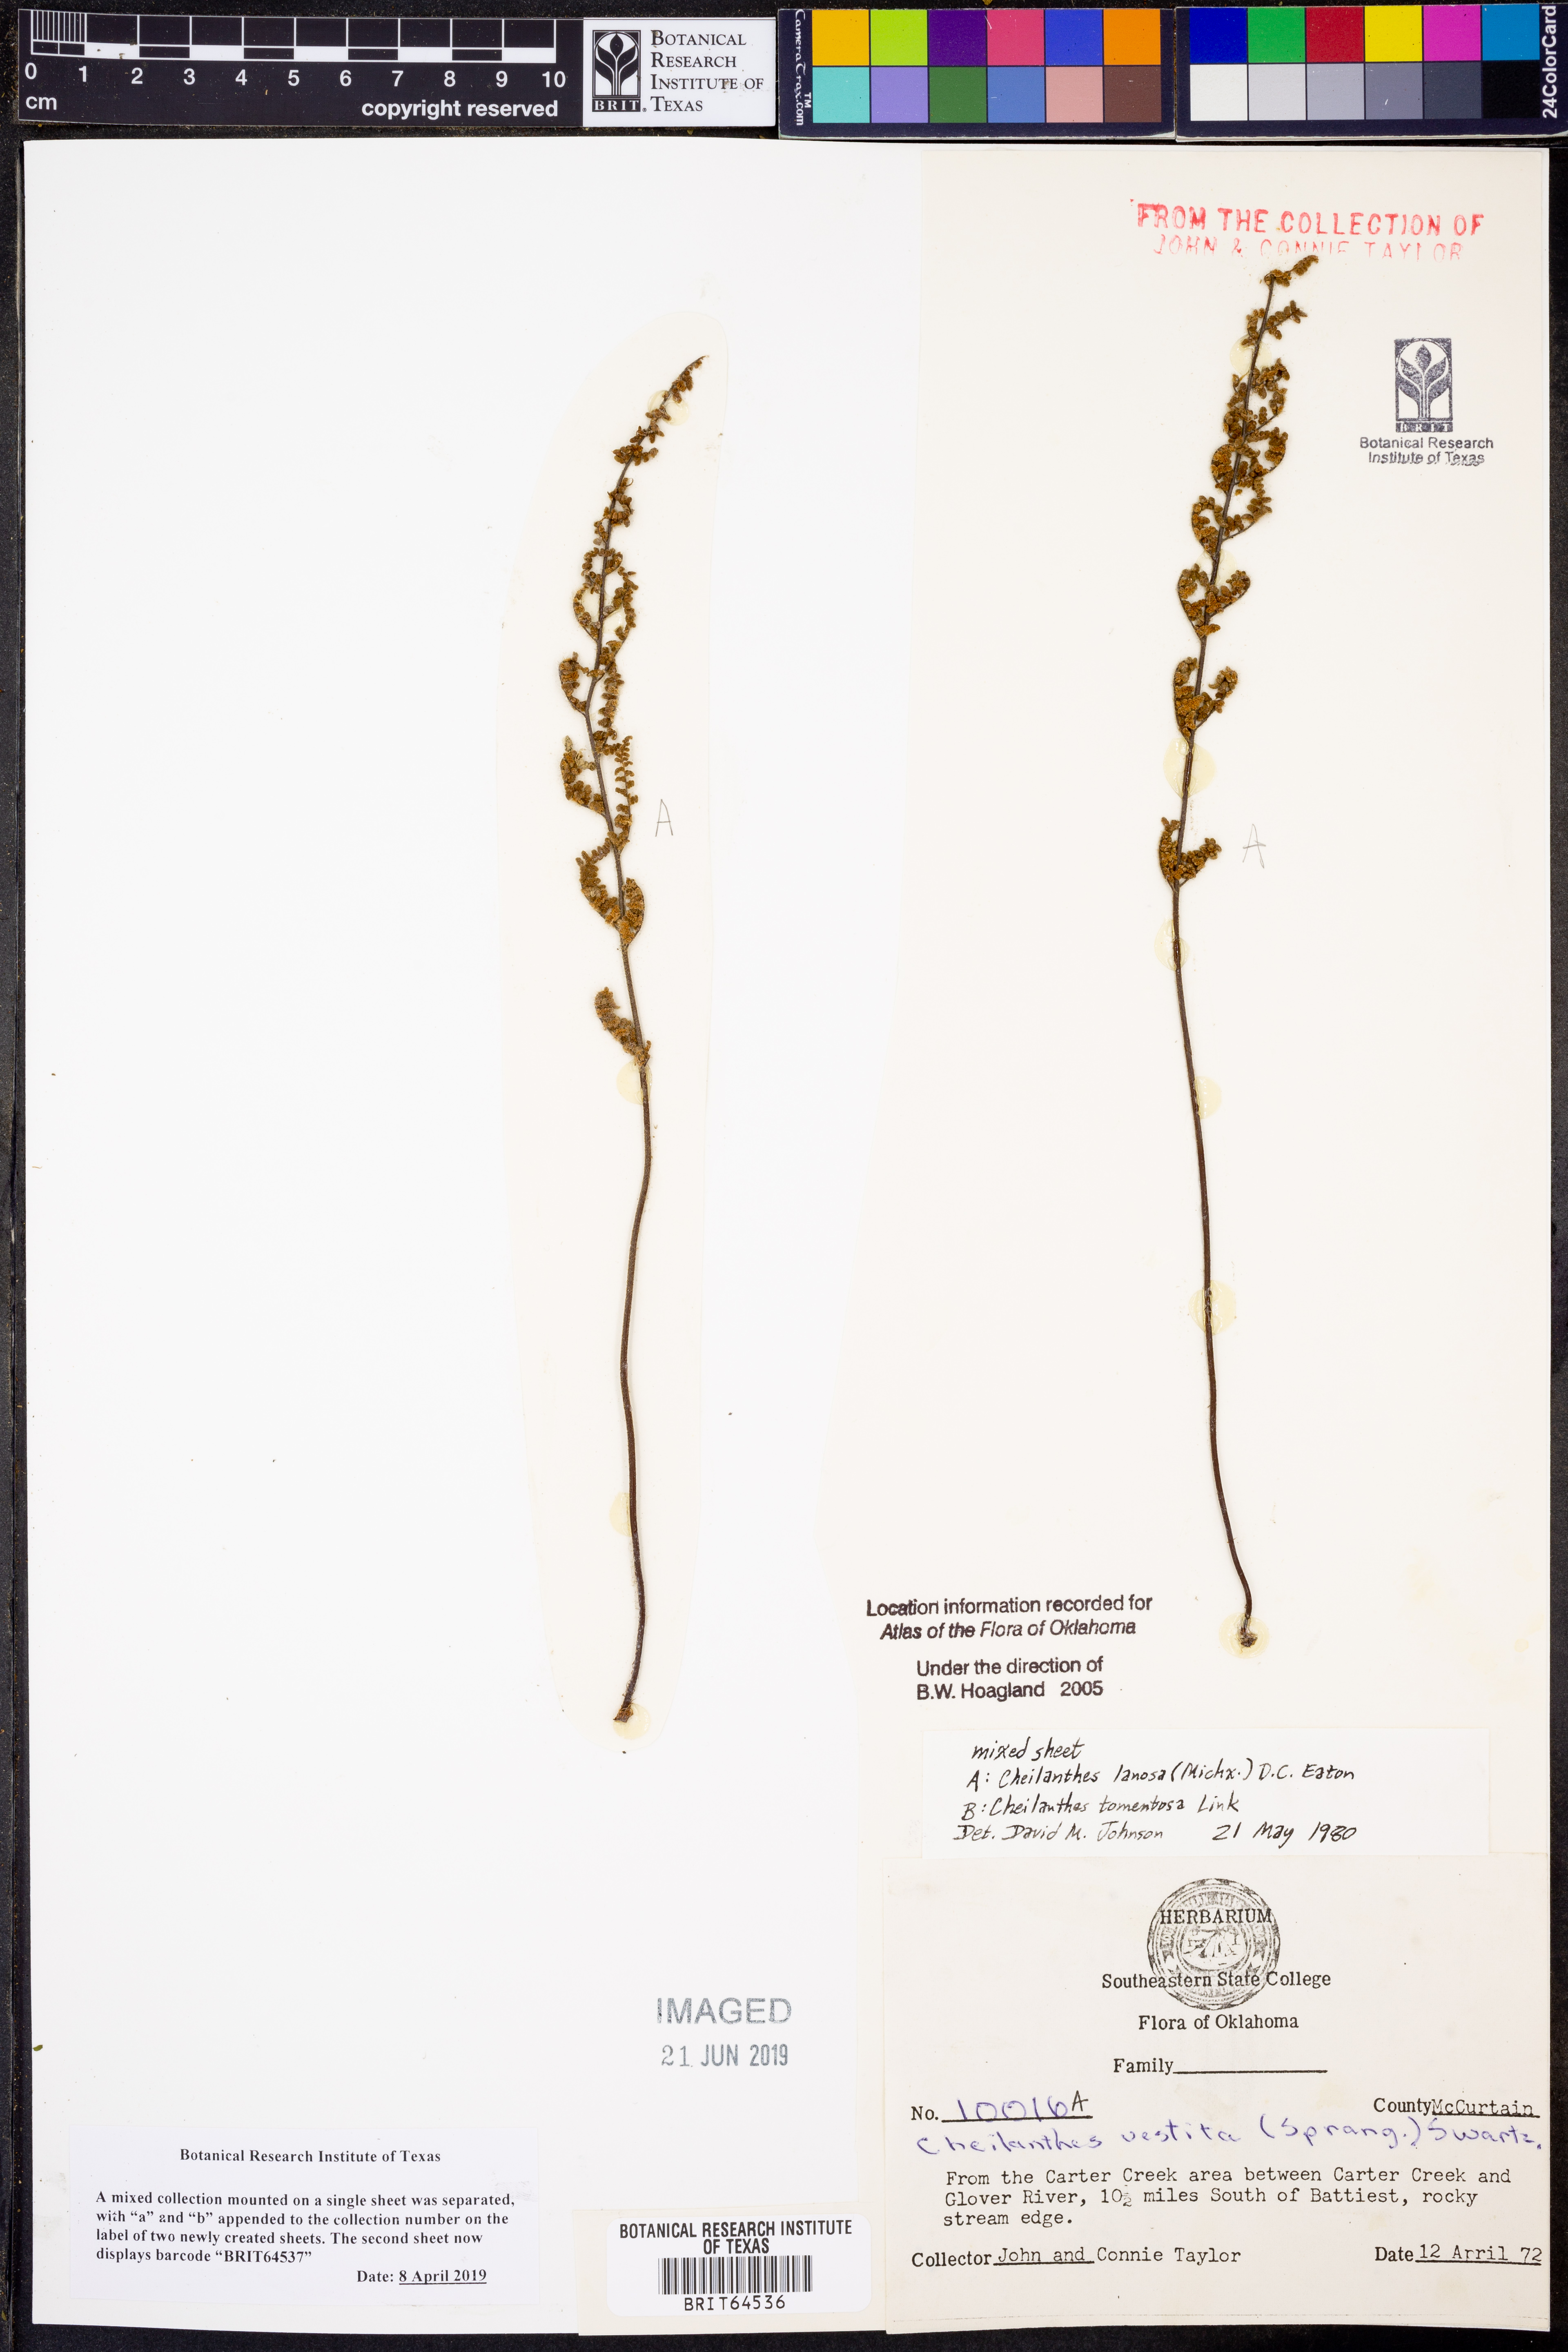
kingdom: Plantae
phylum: Tracheophyta
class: Polypodiopsida
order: Polypodiales
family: Pteridaceae
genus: Myriopteris
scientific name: Myriopteris lanosa
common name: Hairy lip fern
